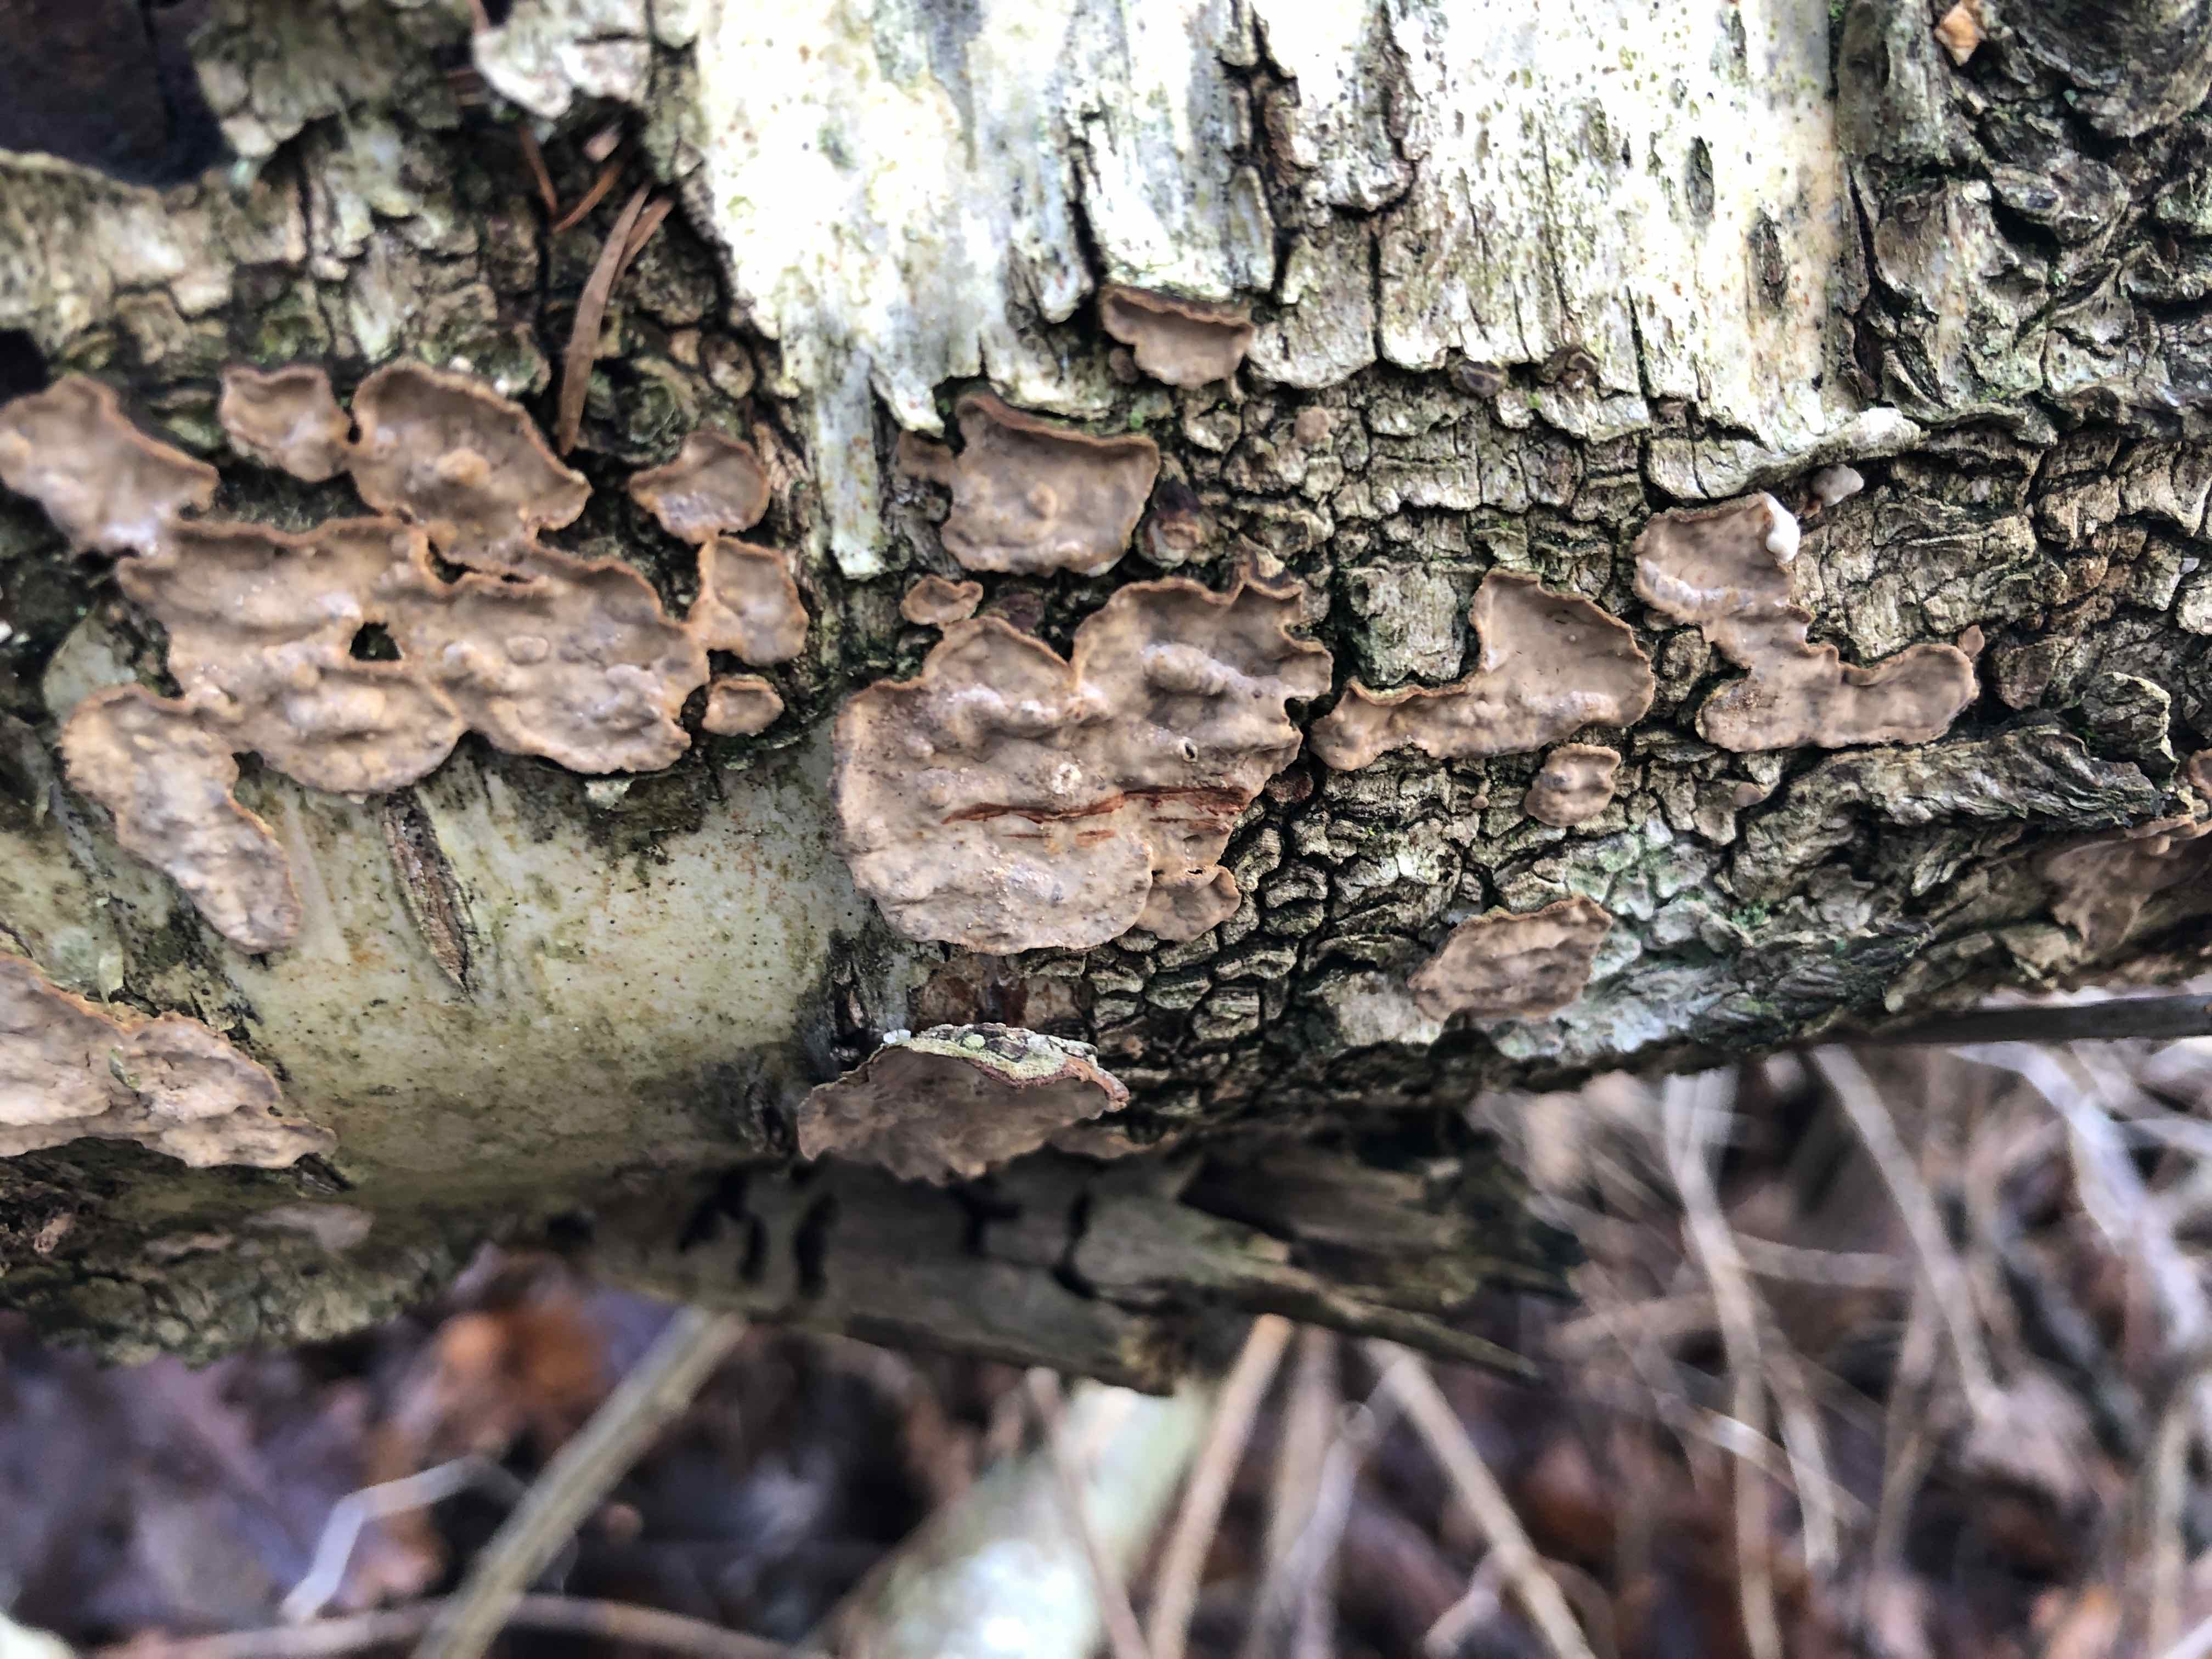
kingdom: Fungi
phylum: Basidiomycota
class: Agaricomycetes
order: Russulales
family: Stereaceae
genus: Stereum
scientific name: Stereum rugosum
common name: rynket lædersvamp
